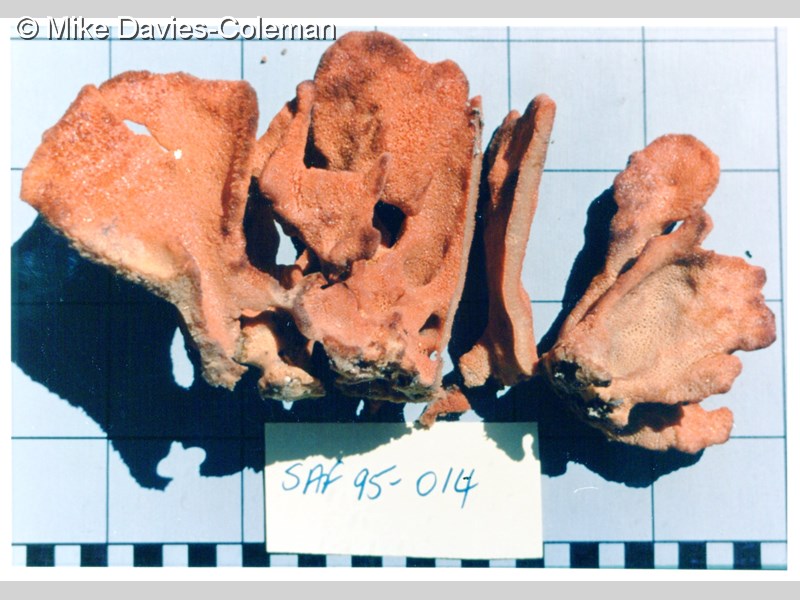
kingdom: Animalia
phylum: Porifera
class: Demospongiae
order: Poecilosclerida
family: Myxillidae
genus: Ectyonopsis
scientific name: Ectyonopsis flabellata
